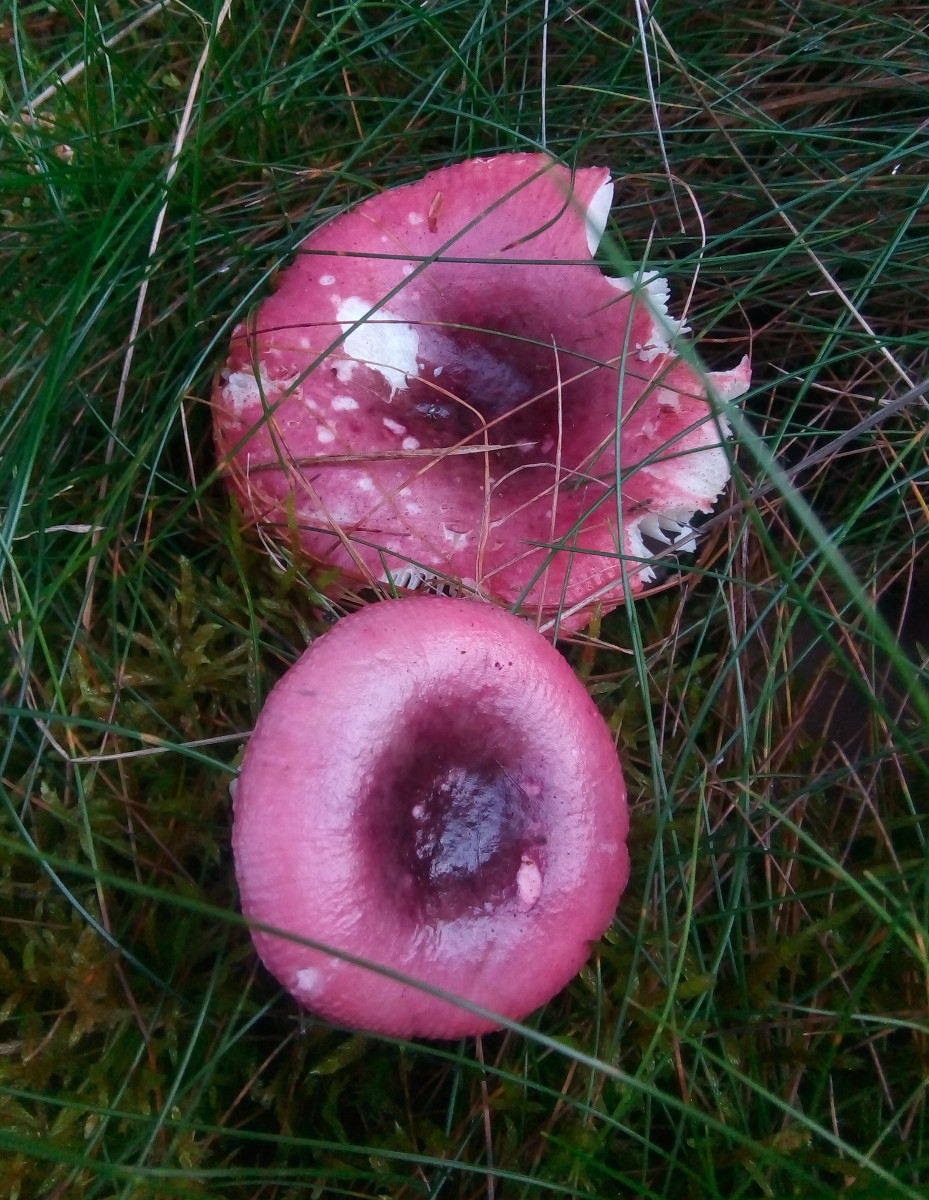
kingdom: Fungi
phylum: Basidiomycota
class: Agaricomycetes
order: Russulales
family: Russulaceae
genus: Russula
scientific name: Russula atrorubens
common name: sortrød skørhat
